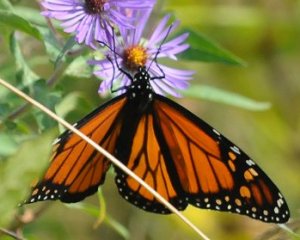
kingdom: Animalia
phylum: Arthropoda
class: Insecta
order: Lepidoptera
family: Nymphalidae
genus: Danaus
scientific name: Danaus plexippus
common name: Monarch
